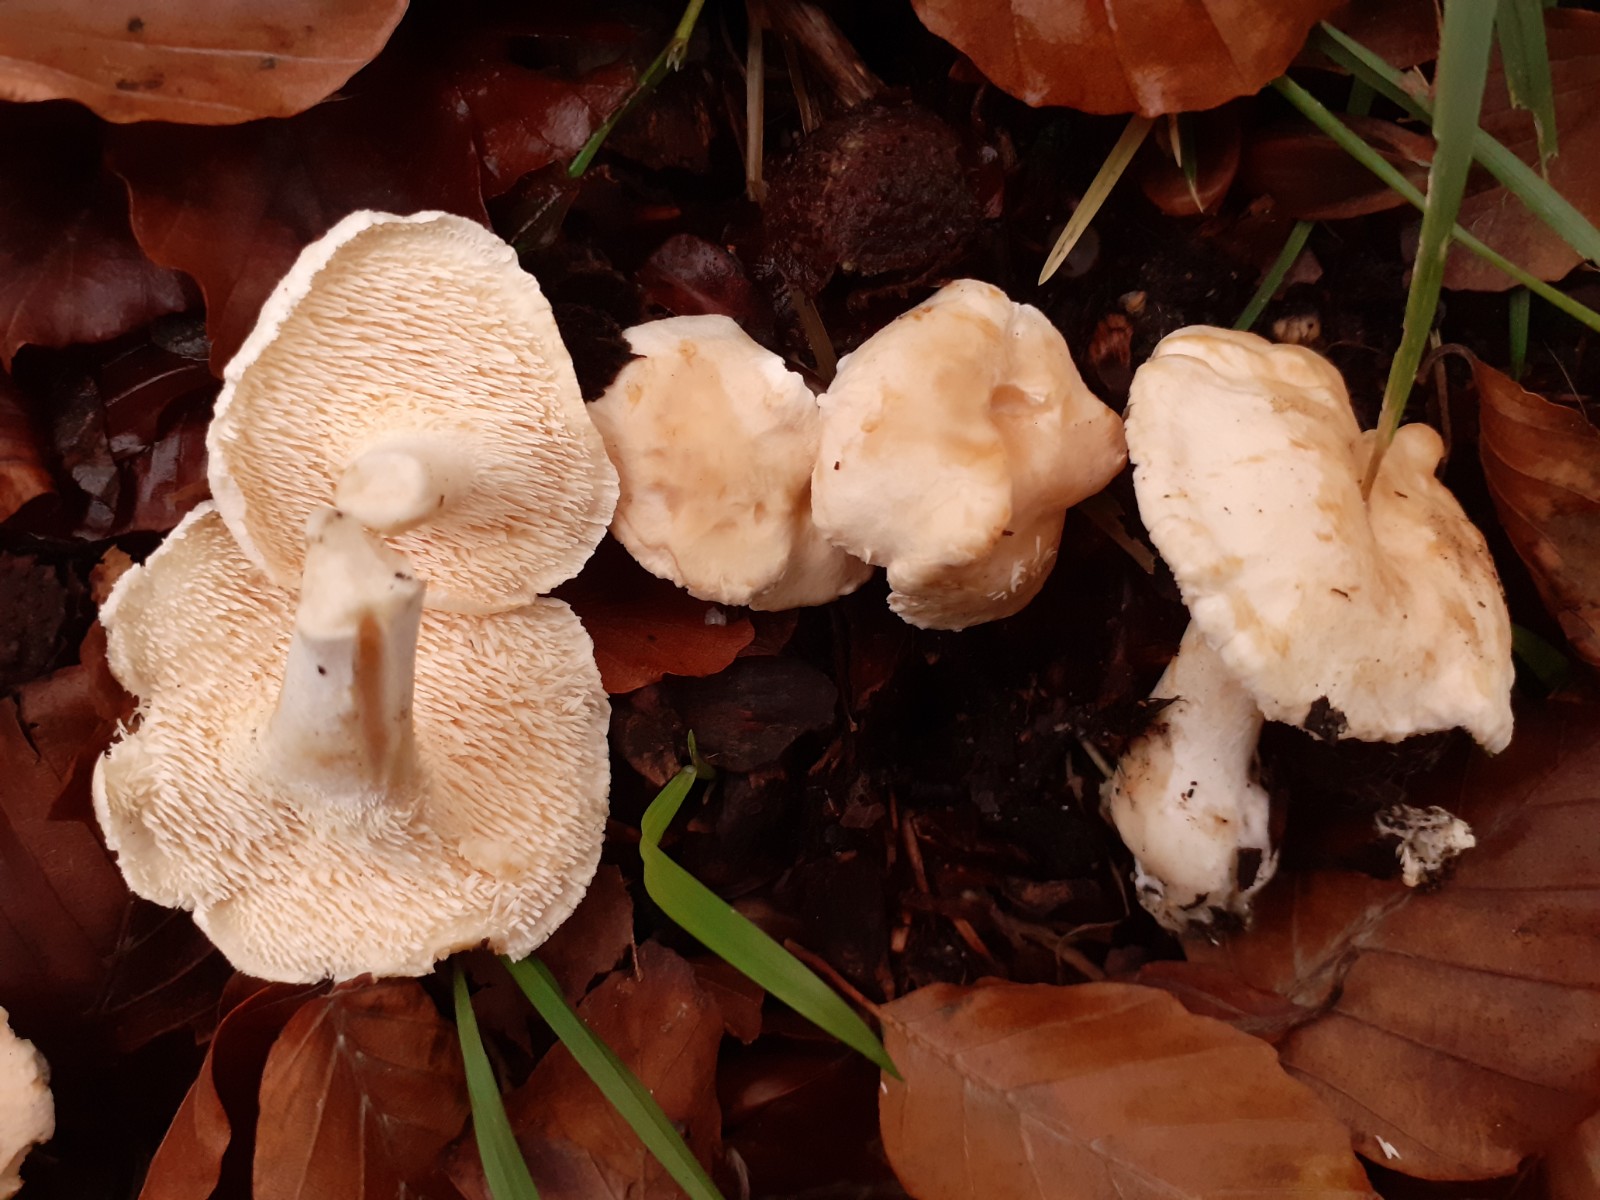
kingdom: Fungi
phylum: Basidiomycota
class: Agaricomycetes
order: Cantharellales
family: Hydnaceae
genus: Hydnum
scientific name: Hydnum vesterholtii
